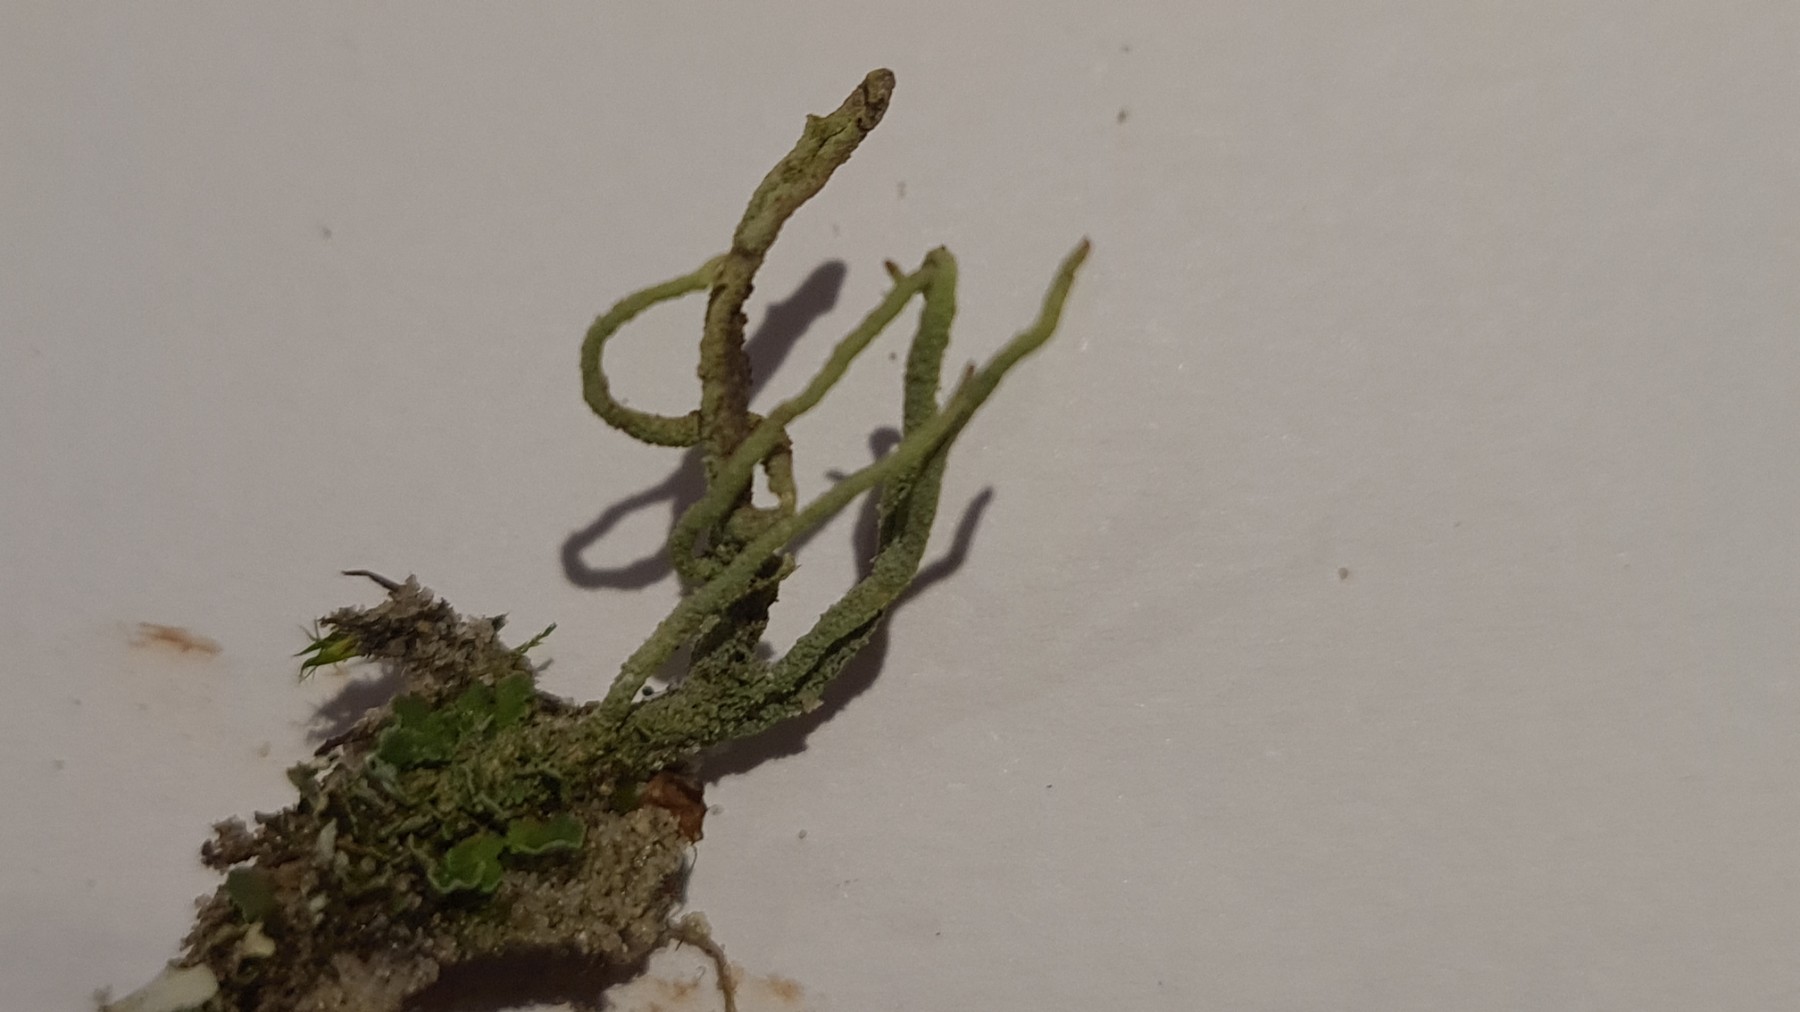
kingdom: Fungi
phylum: Ascomycota
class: Lecanoromycetes
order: Lecanorales
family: Cladoniaceae
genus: Cladonia
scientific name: Cladonia coniocraea
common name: træfods-bægerlav
